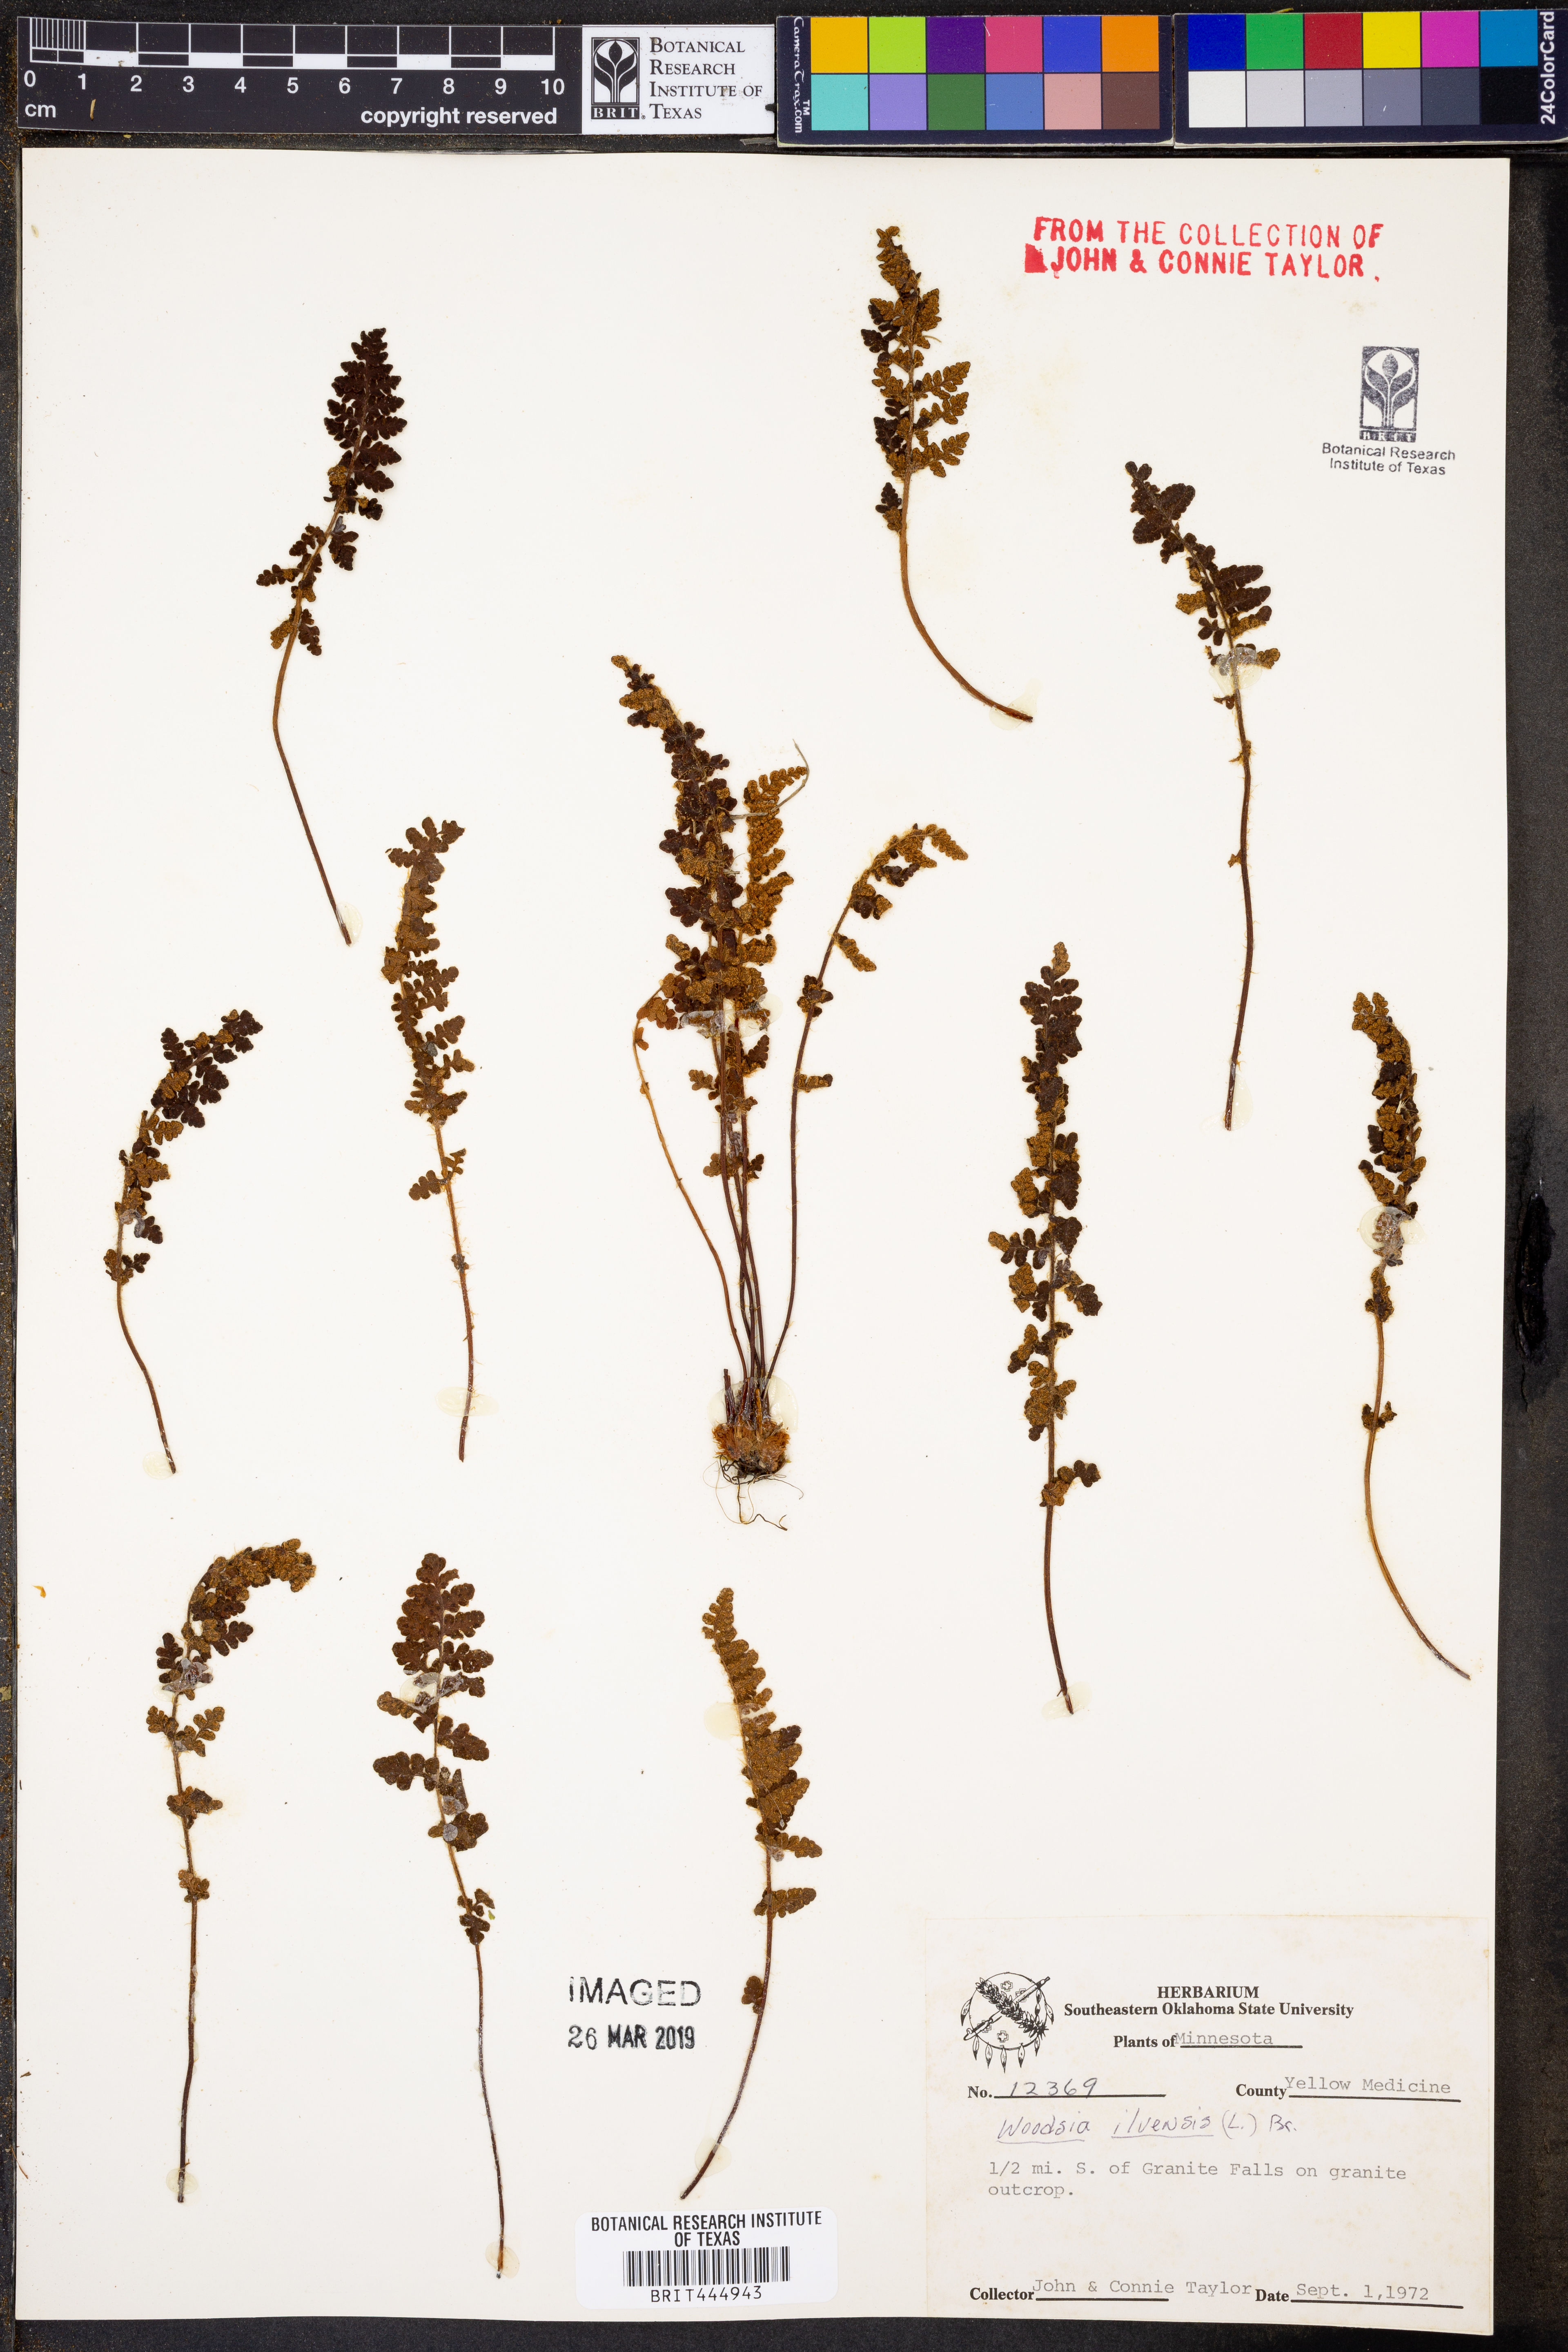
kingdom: Plantae
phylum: Tracheophyta
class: Polypodiopsida
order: Polypodiales
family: Woodsiaceae
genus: Woodsia
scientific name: Woodsia ilvensis
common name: Fragrant woodsia
